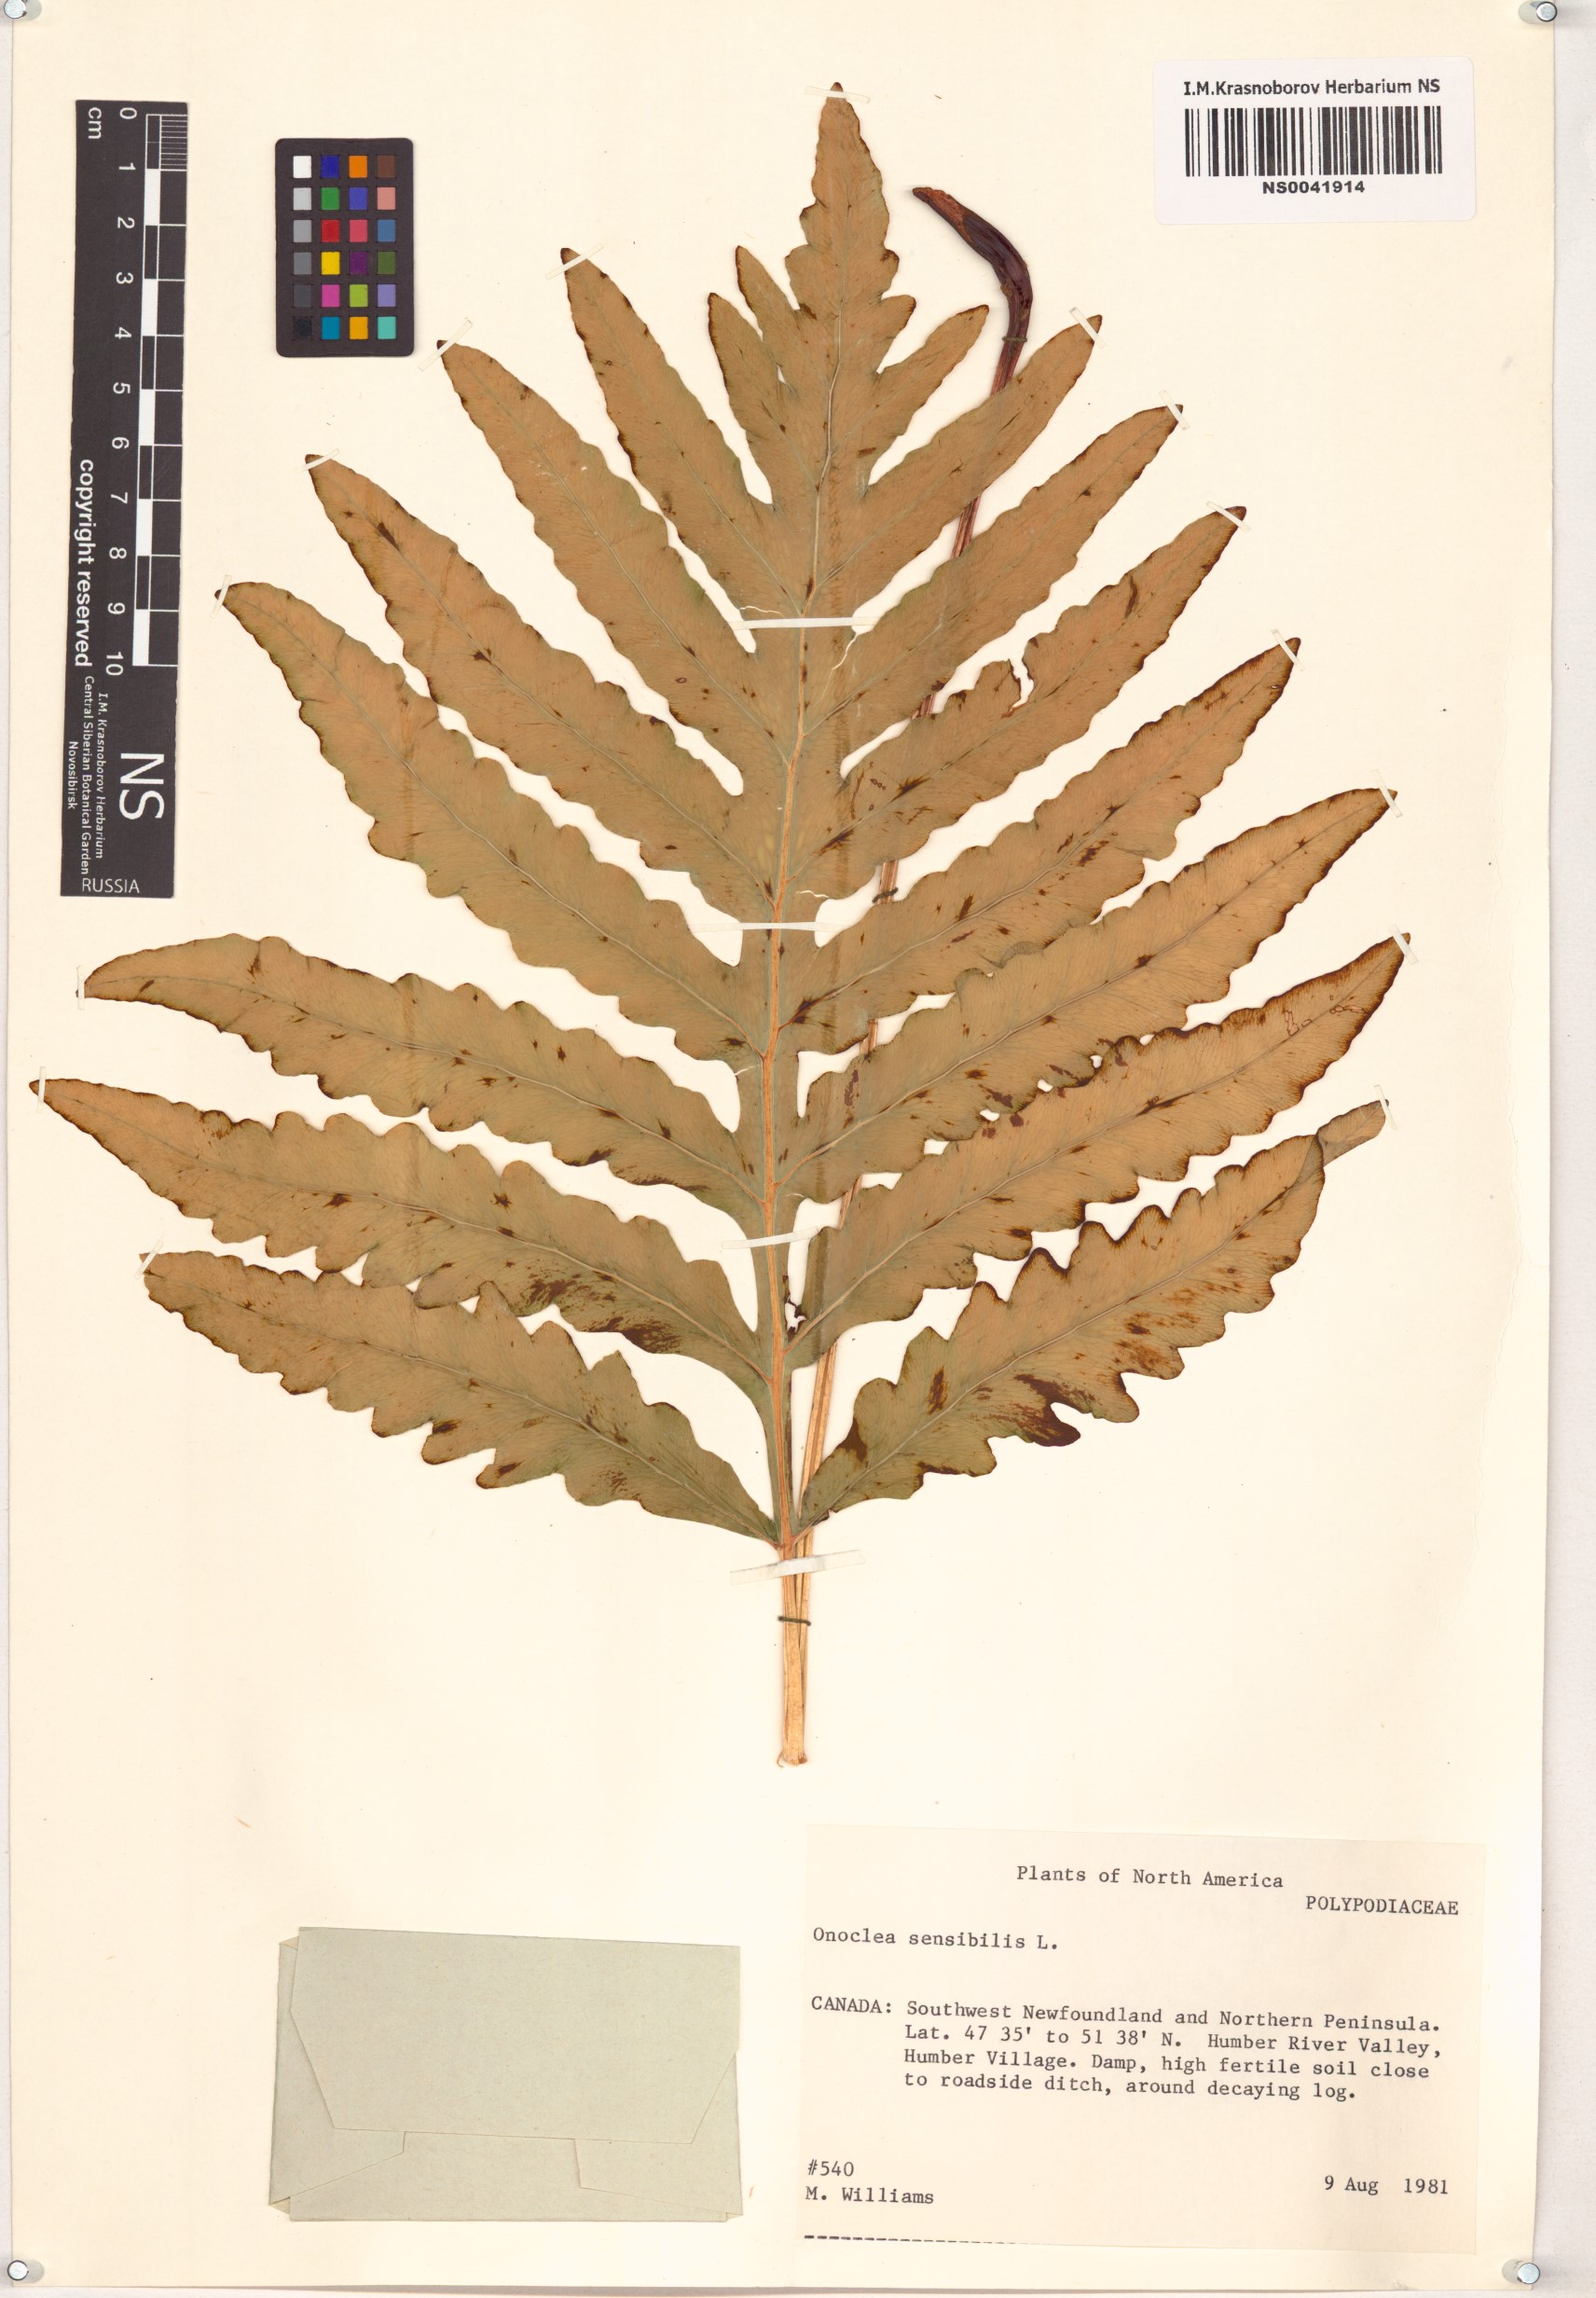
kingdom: Plantae
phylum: Tracheophyta
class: Polypodiopsida
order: Polypodiales
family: Onocleaceae
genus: Onoclea
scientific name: Onoclea sensibilis
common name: Sensitive fern
